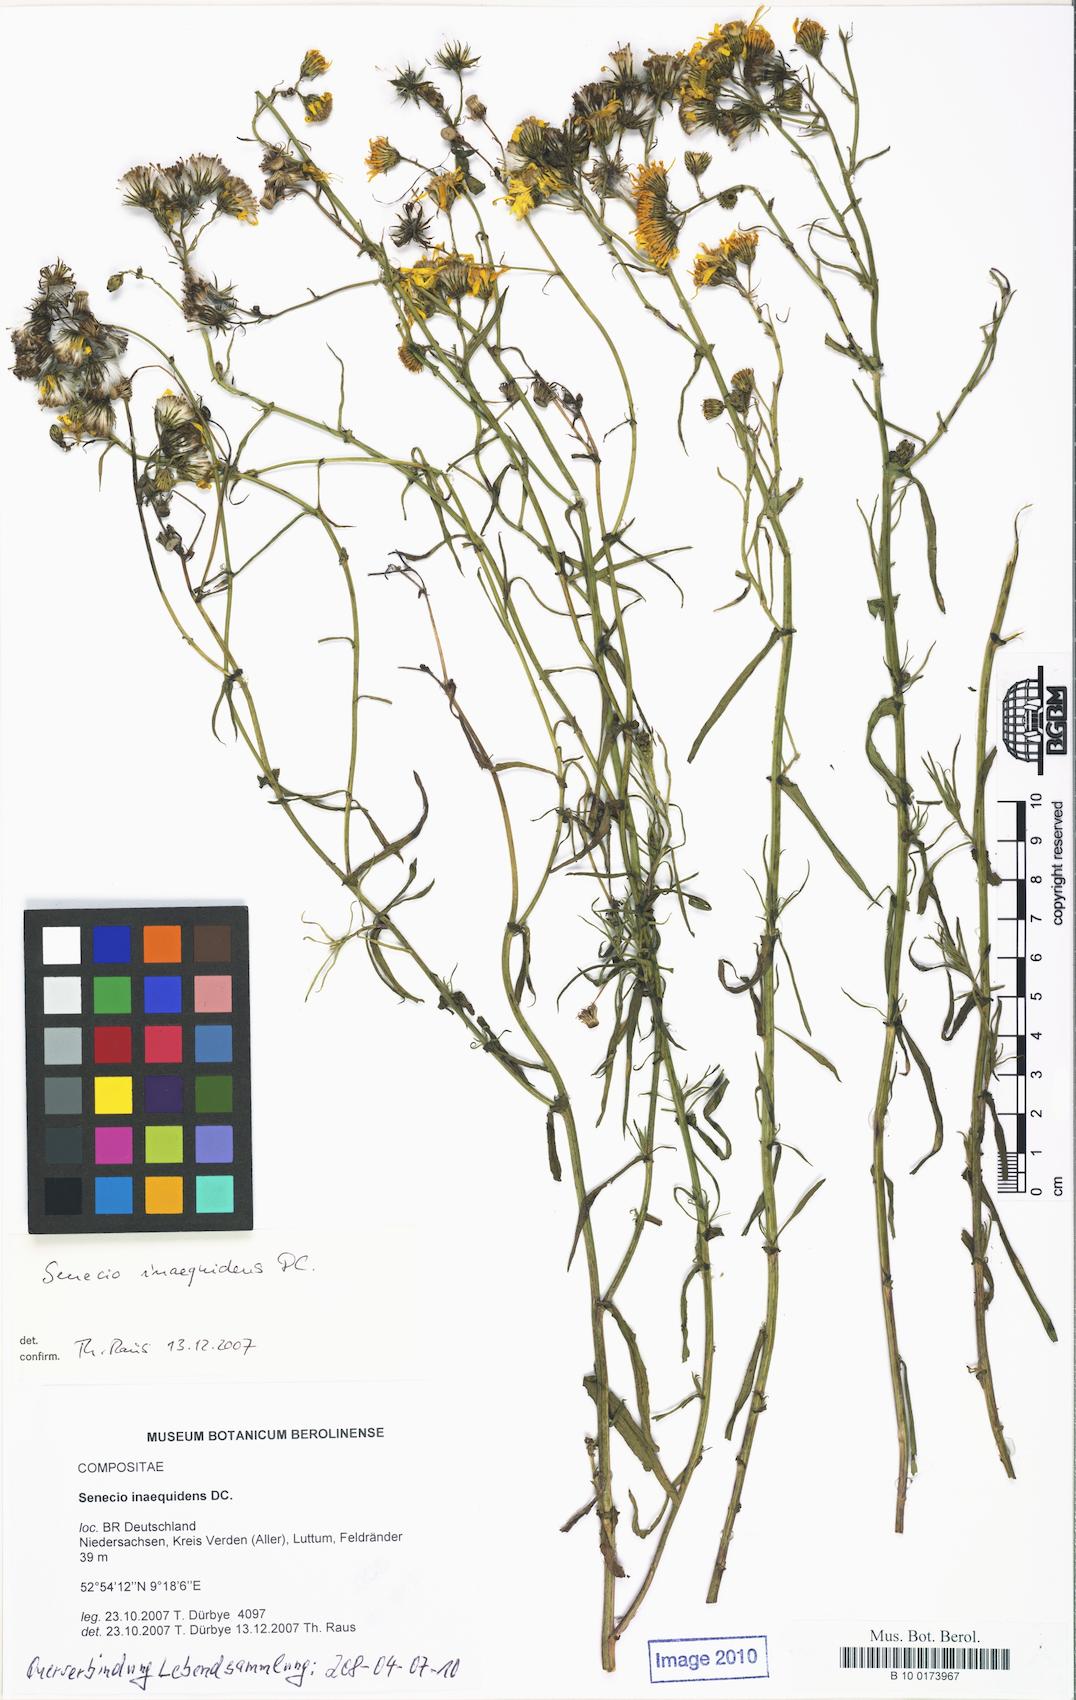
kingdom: Plantae
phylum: Tracheophyta
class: Magnoliopsida
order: Asterales
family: Asteraceae
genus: Senecio
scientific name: Senecio inaequidens
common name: Narrow-leaved ragwort
